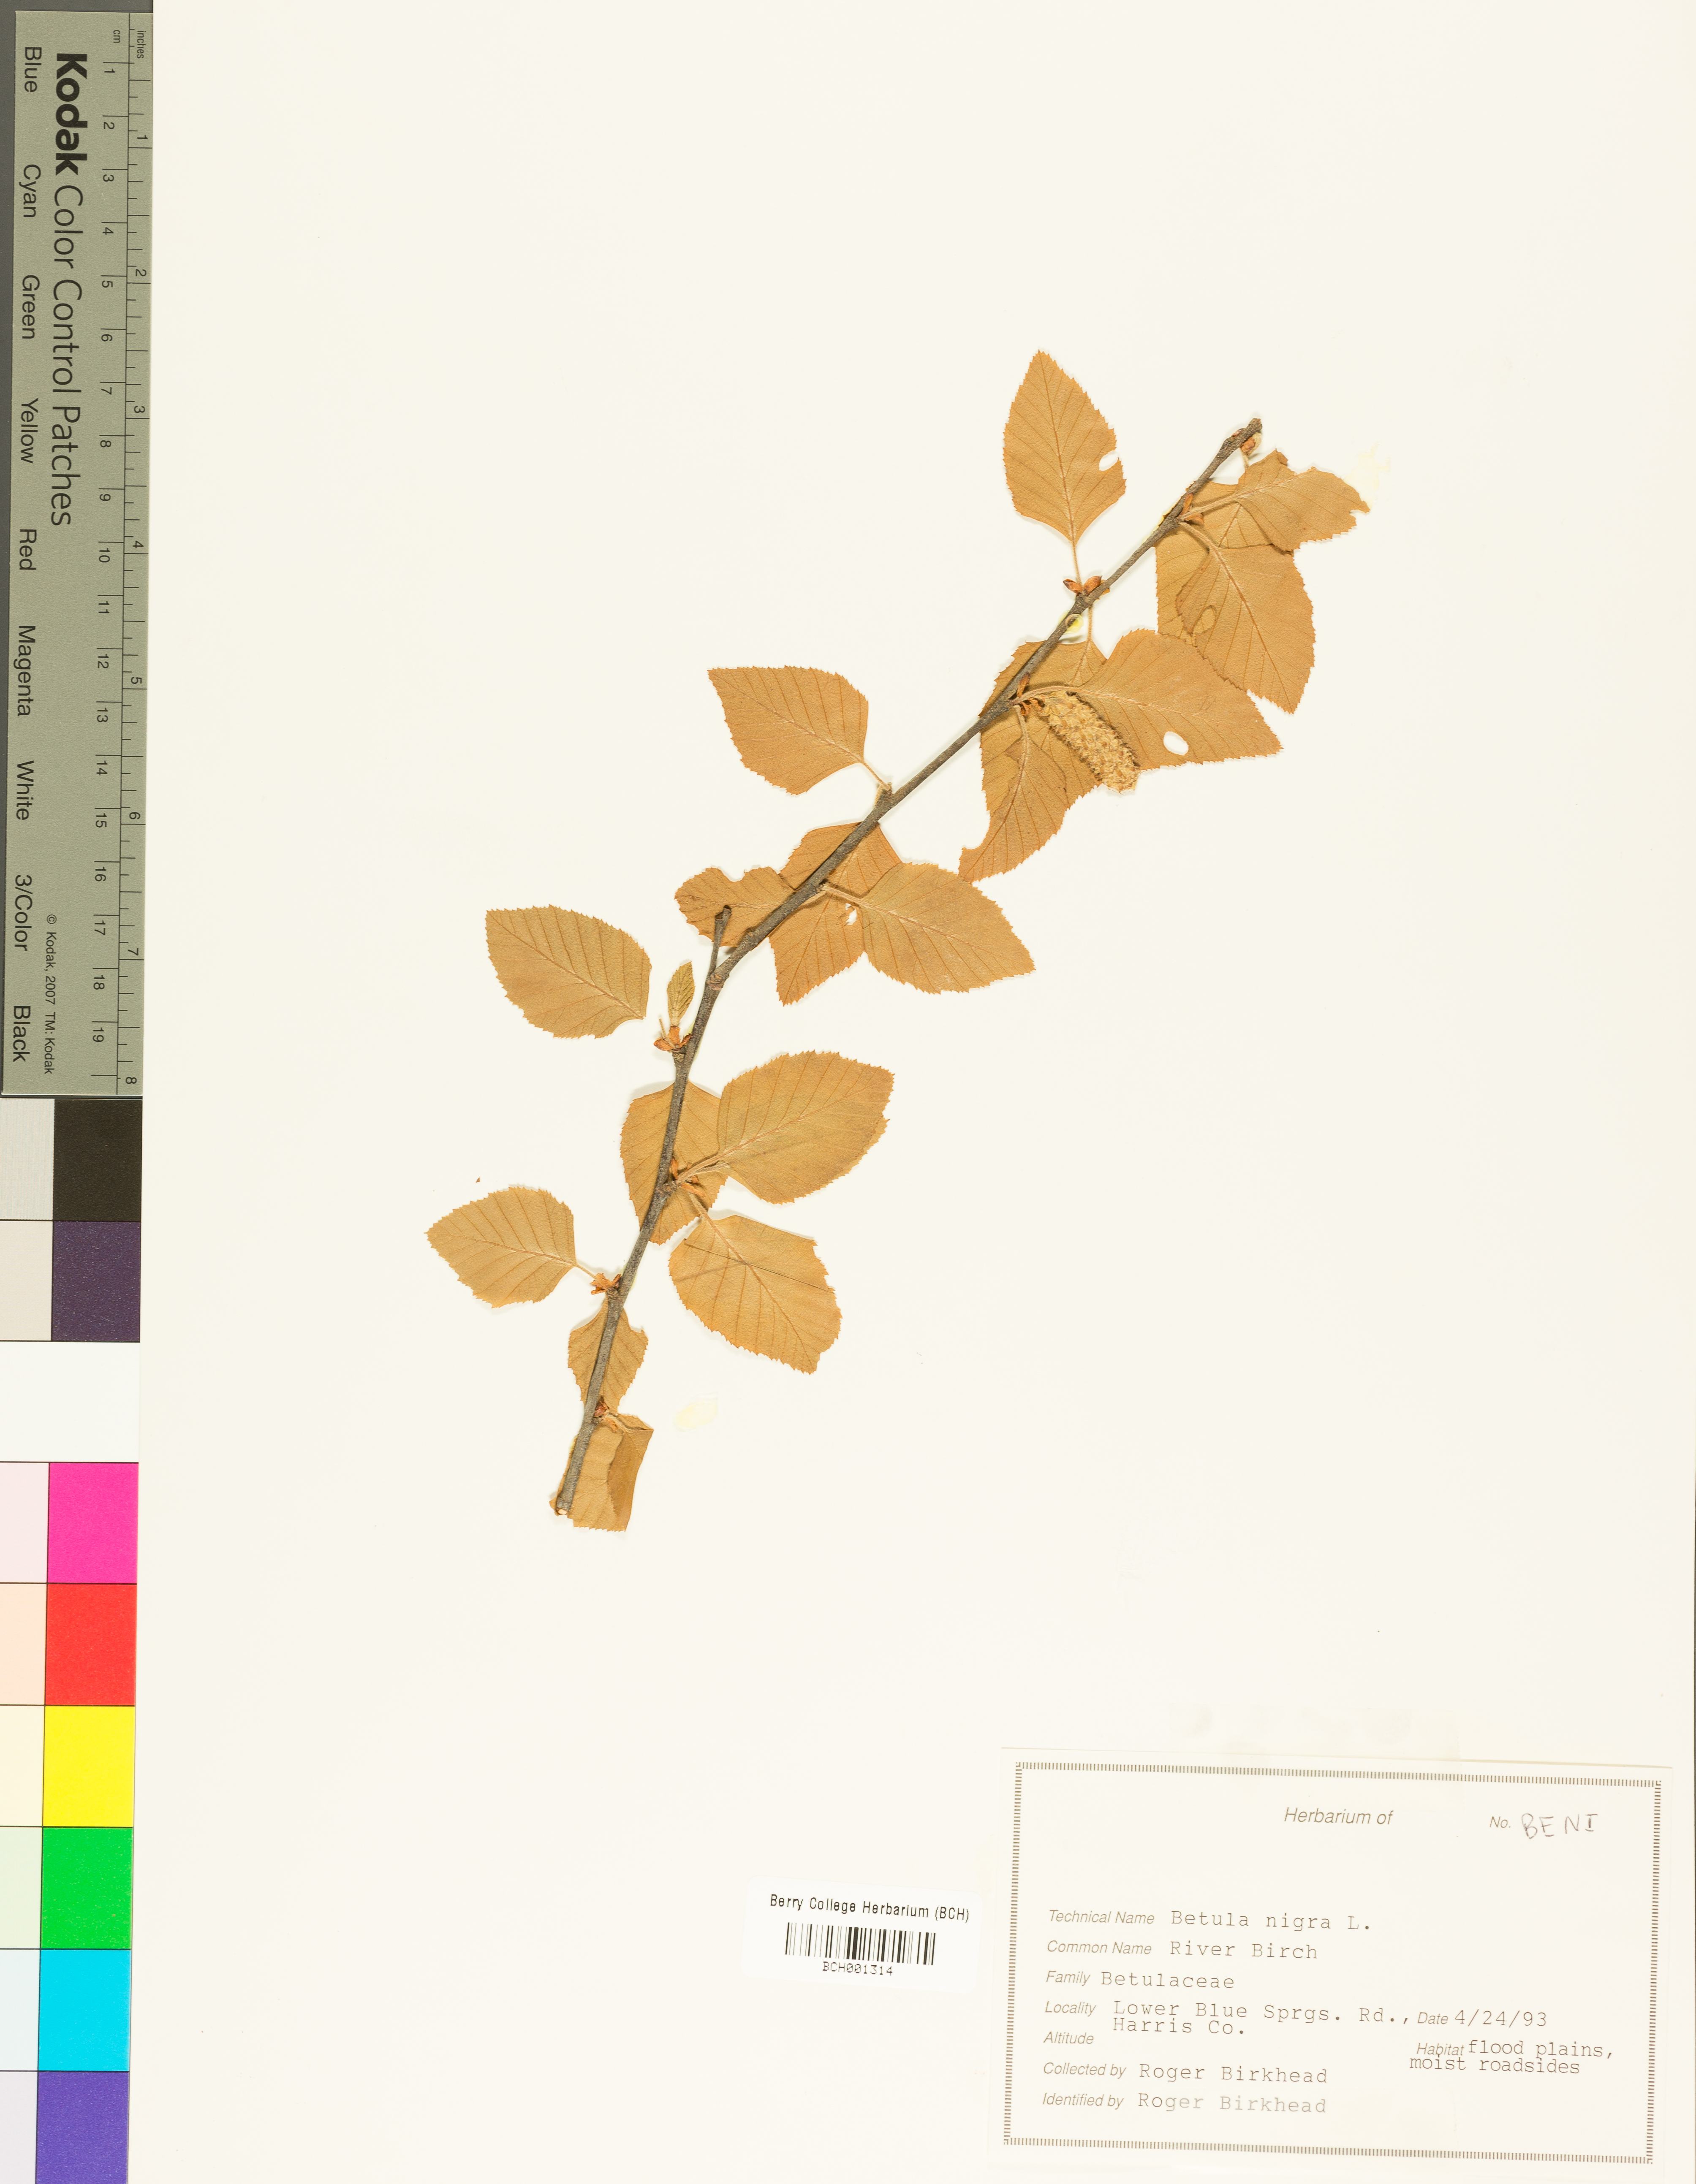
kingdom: Plantae
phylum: Tracheophyta
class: Magnoliopsida
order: Fagales
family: Betulaceae
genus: Betula
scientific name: Betula nigra
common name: Black birch
